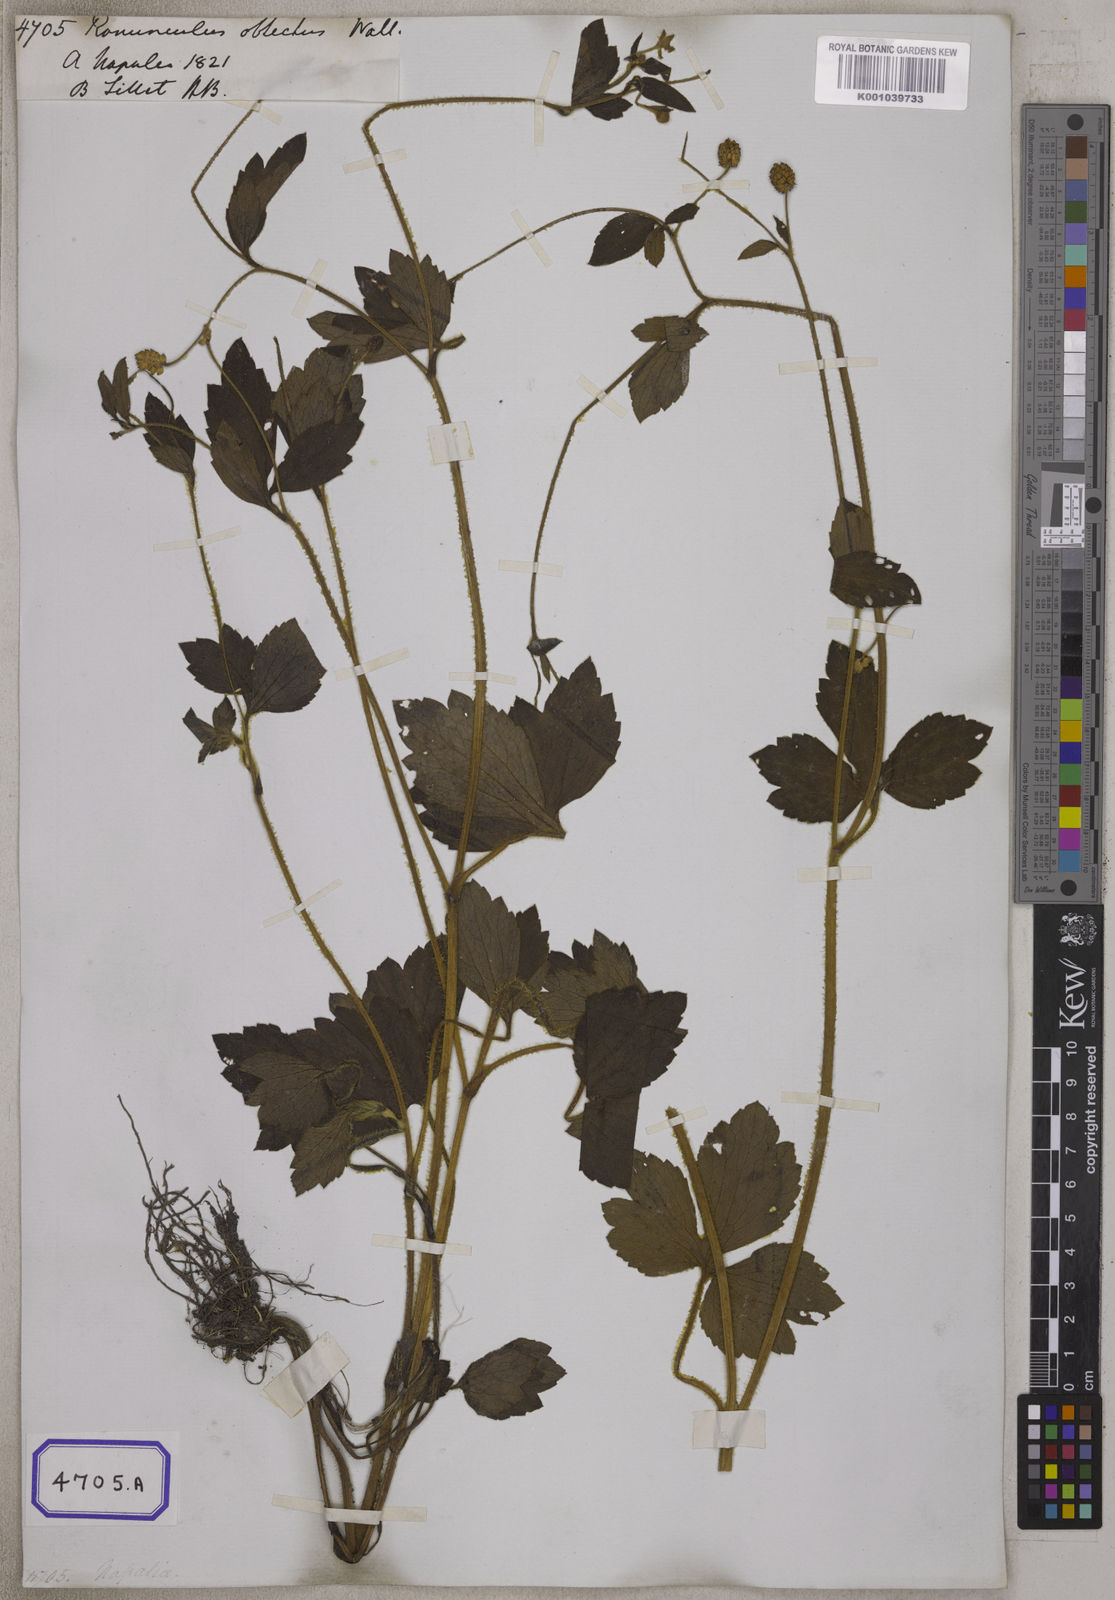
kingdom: Plantae
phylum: Tracheophyta
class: Magnoliopsida
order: Ranunculales
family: Ranunculaceae
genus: Ranunculus
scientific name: Ranunculus diffusus
